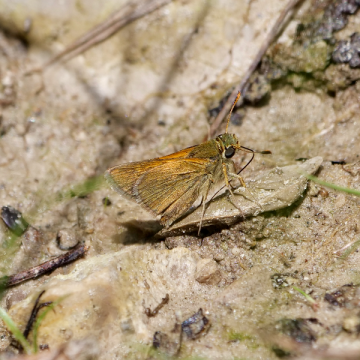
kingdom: Animalia
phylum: Arthropoda
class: Insecta
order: Lepidoptera
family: Hesperiidae
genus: Polites
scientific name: Polites themistocles
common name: Tawny-edged Skipper
